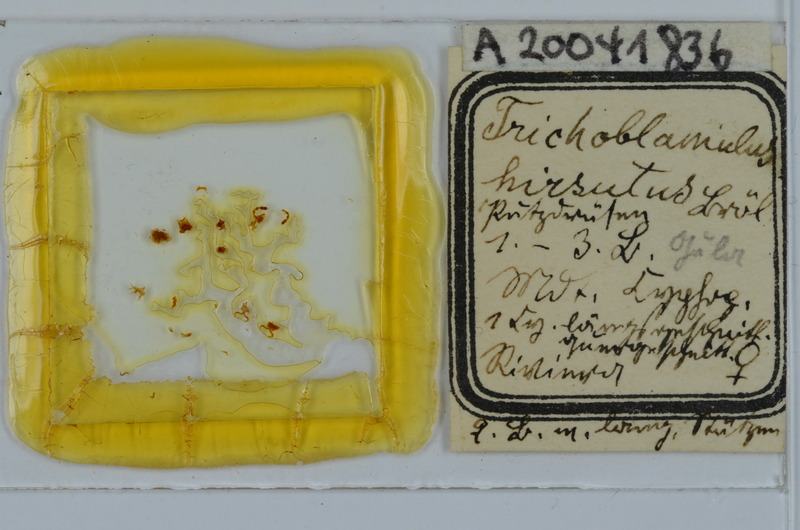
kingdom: Animalia
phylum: Arthropoda
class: Diplopoda
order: Julida
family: Trichoblaniulidae
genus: Trichoblaniulus
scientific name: Trichoblaniulus hirsutus
